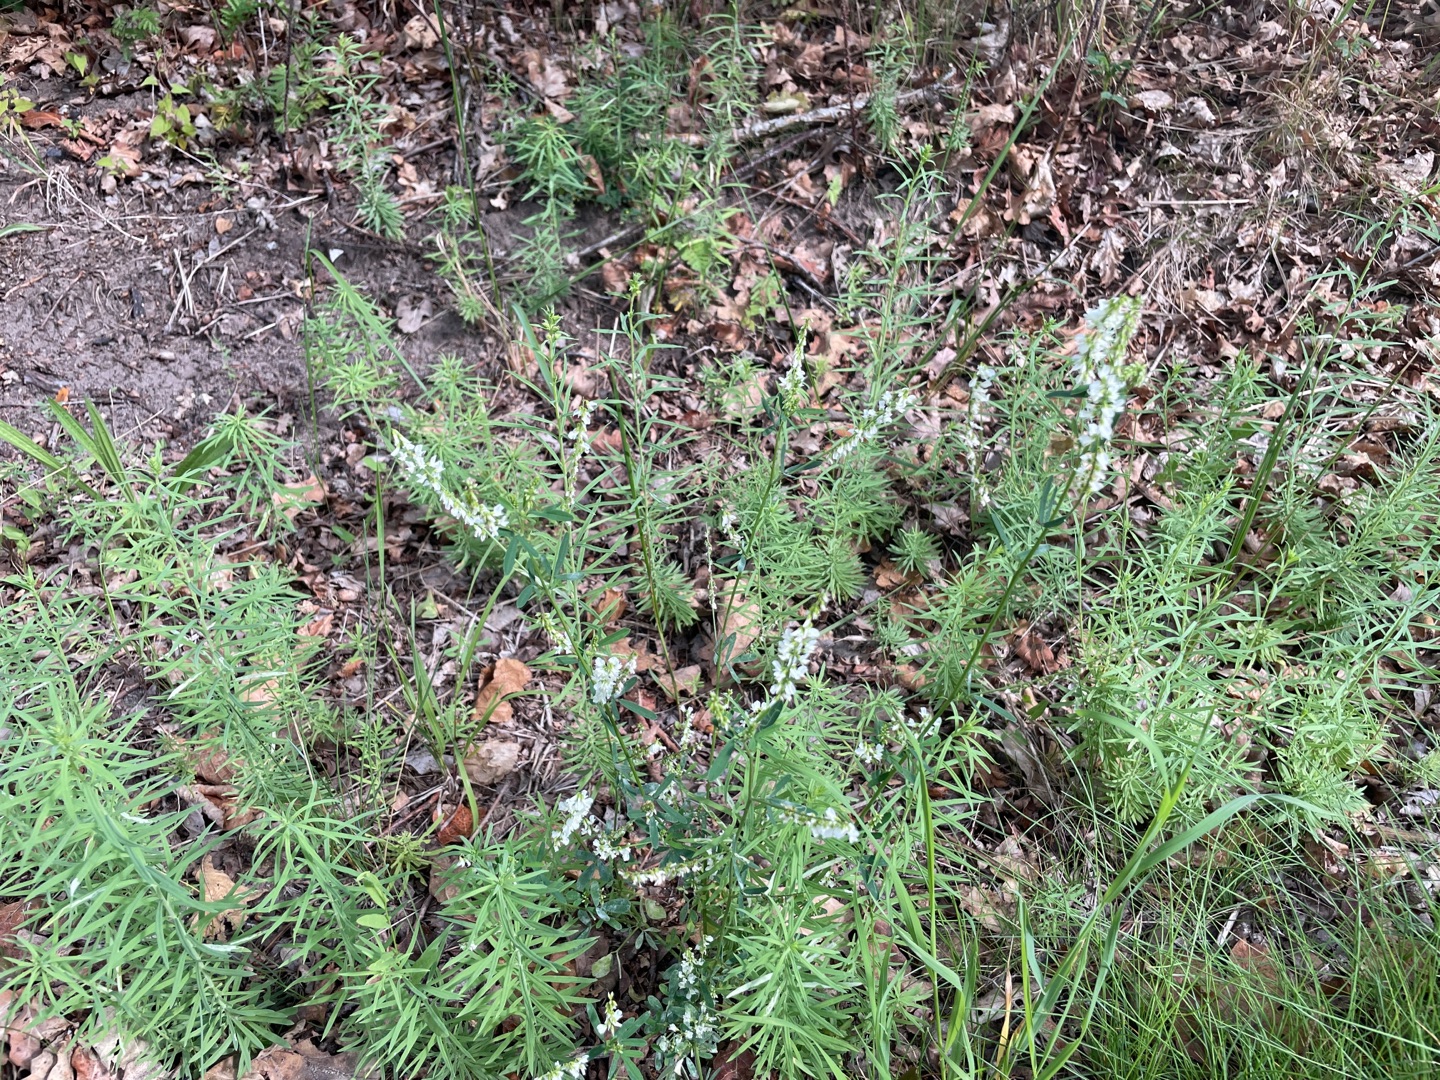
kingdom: Plantae
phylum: Tracheophyta
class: Magnoliopsida
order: Fabales
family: Fabaceae
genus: Melilotus
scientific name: Melilotus albus
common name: Hvid stenkløver
